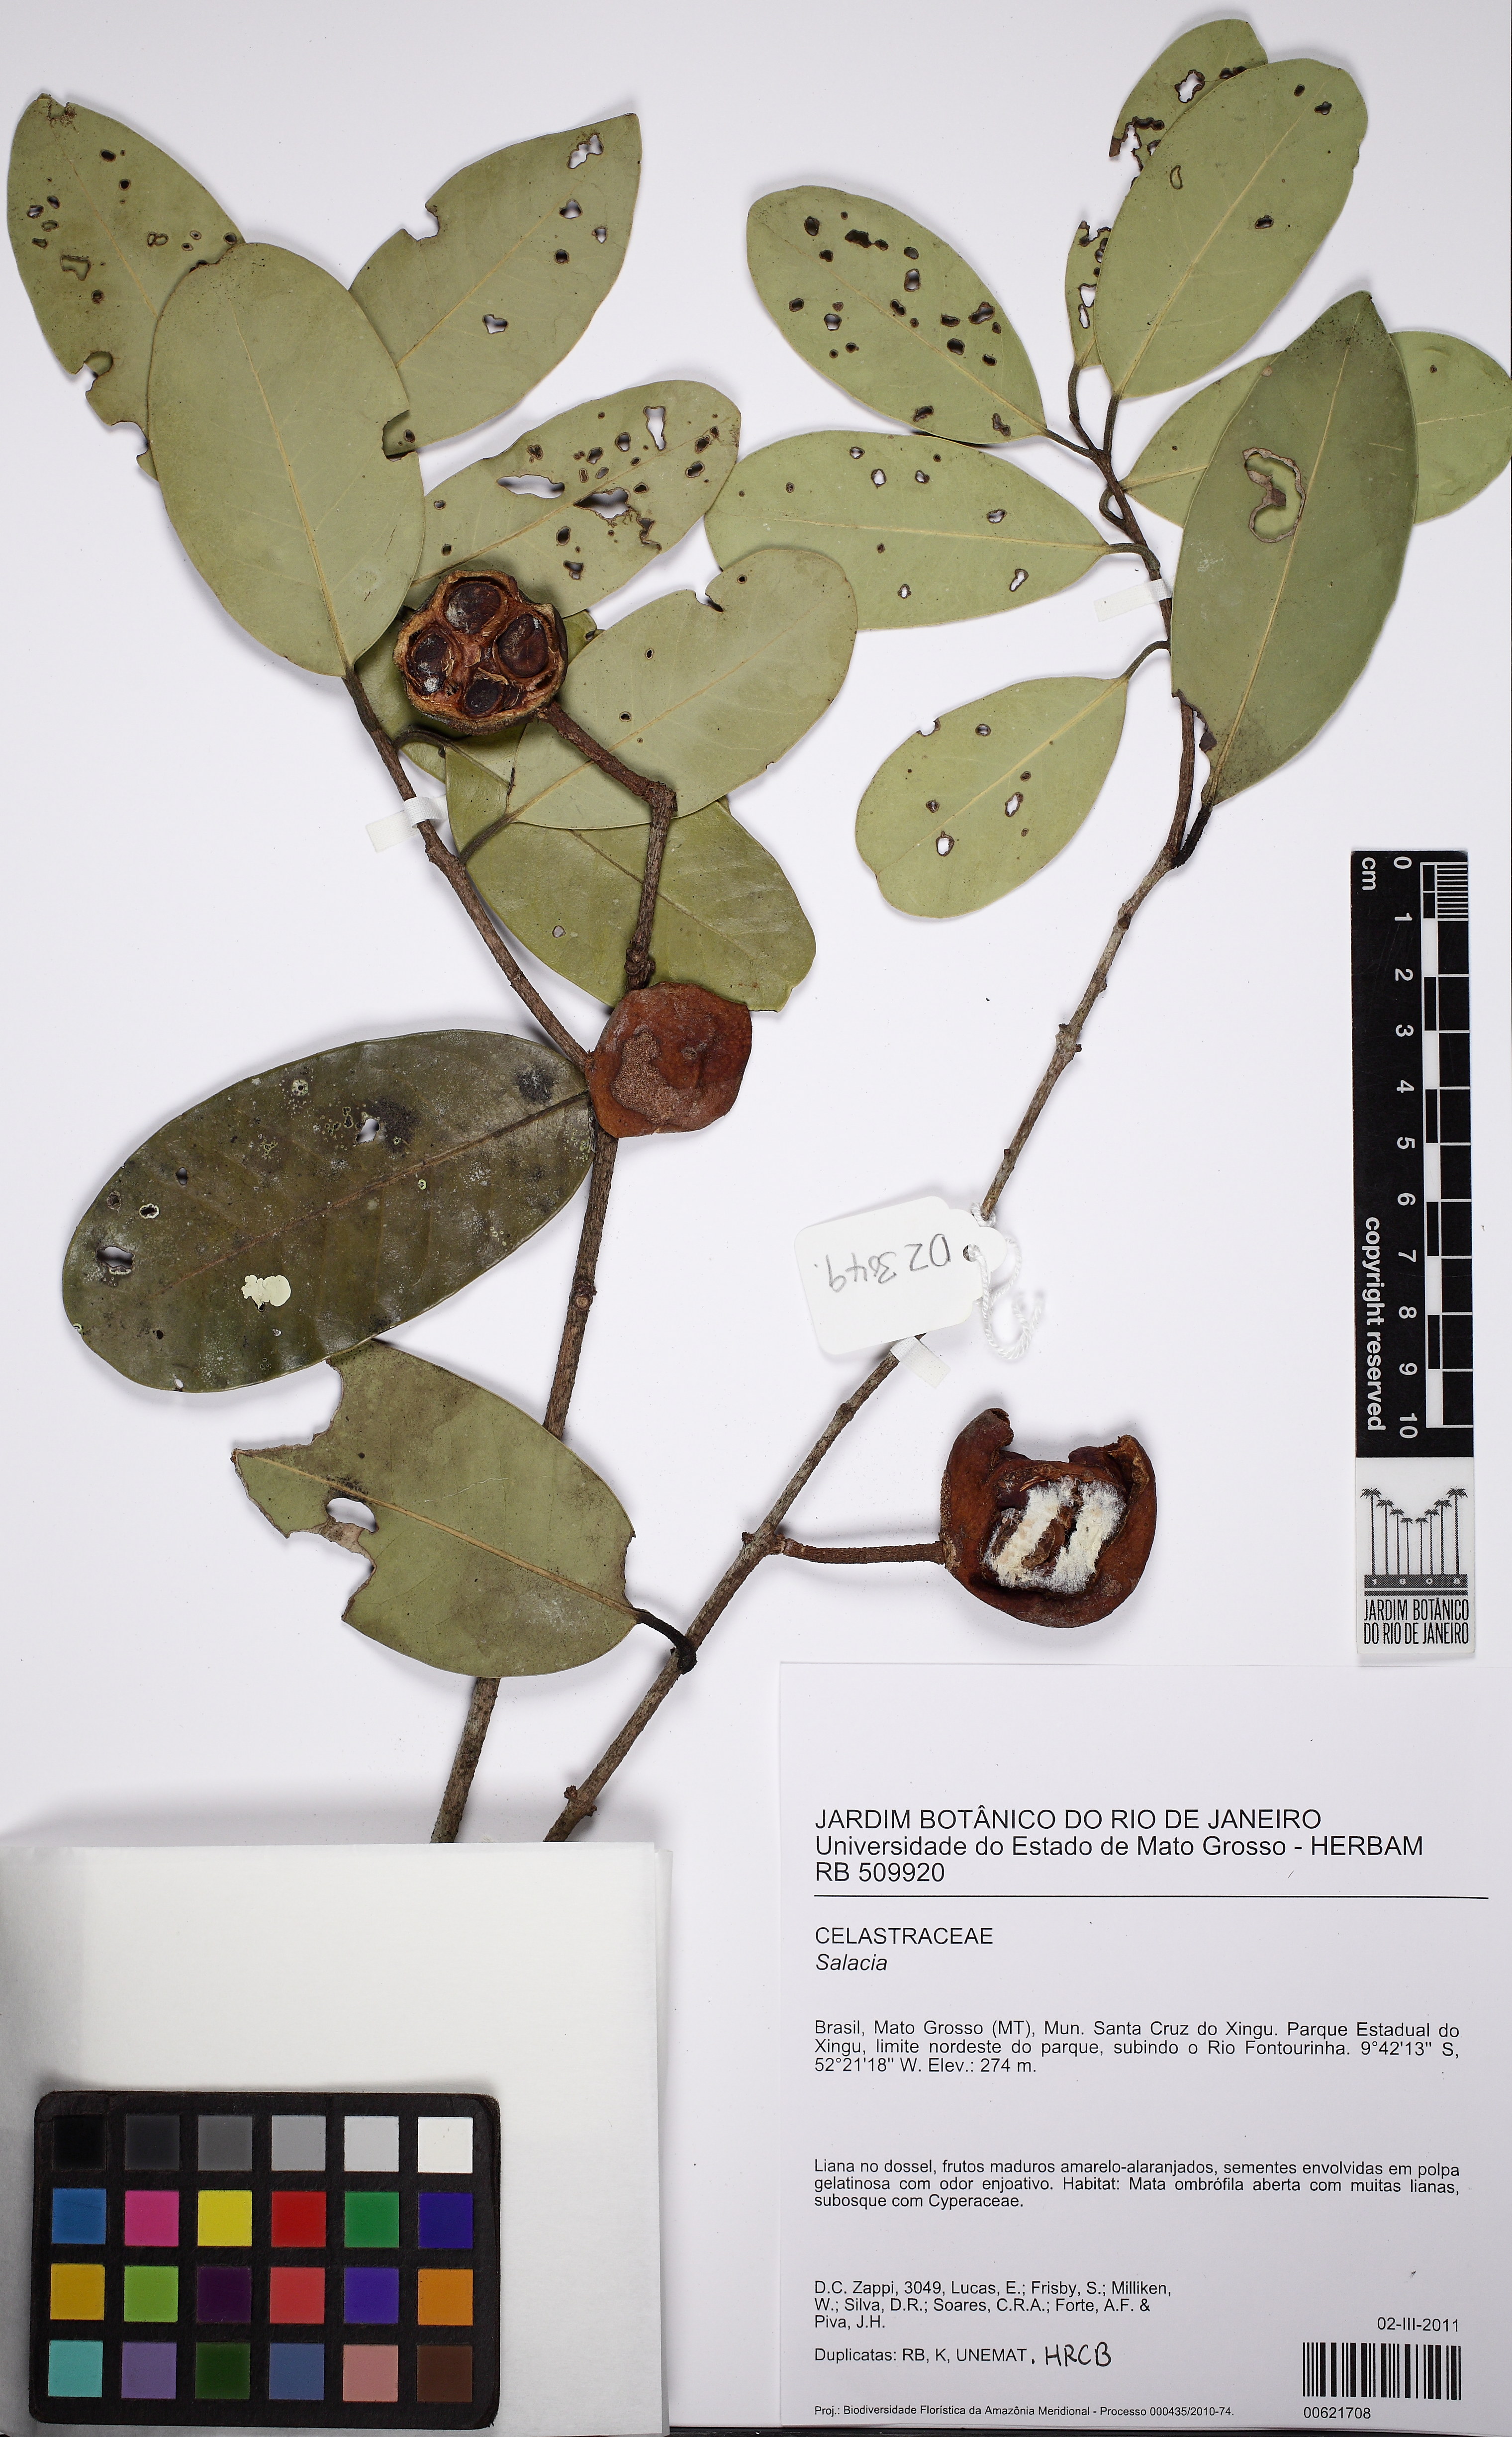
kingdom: Plantae
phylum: Tracheophyta
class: Magnoliopsida
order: Celastrales
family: Celastraceae
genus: Salacia
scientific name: Salacia elliptica
